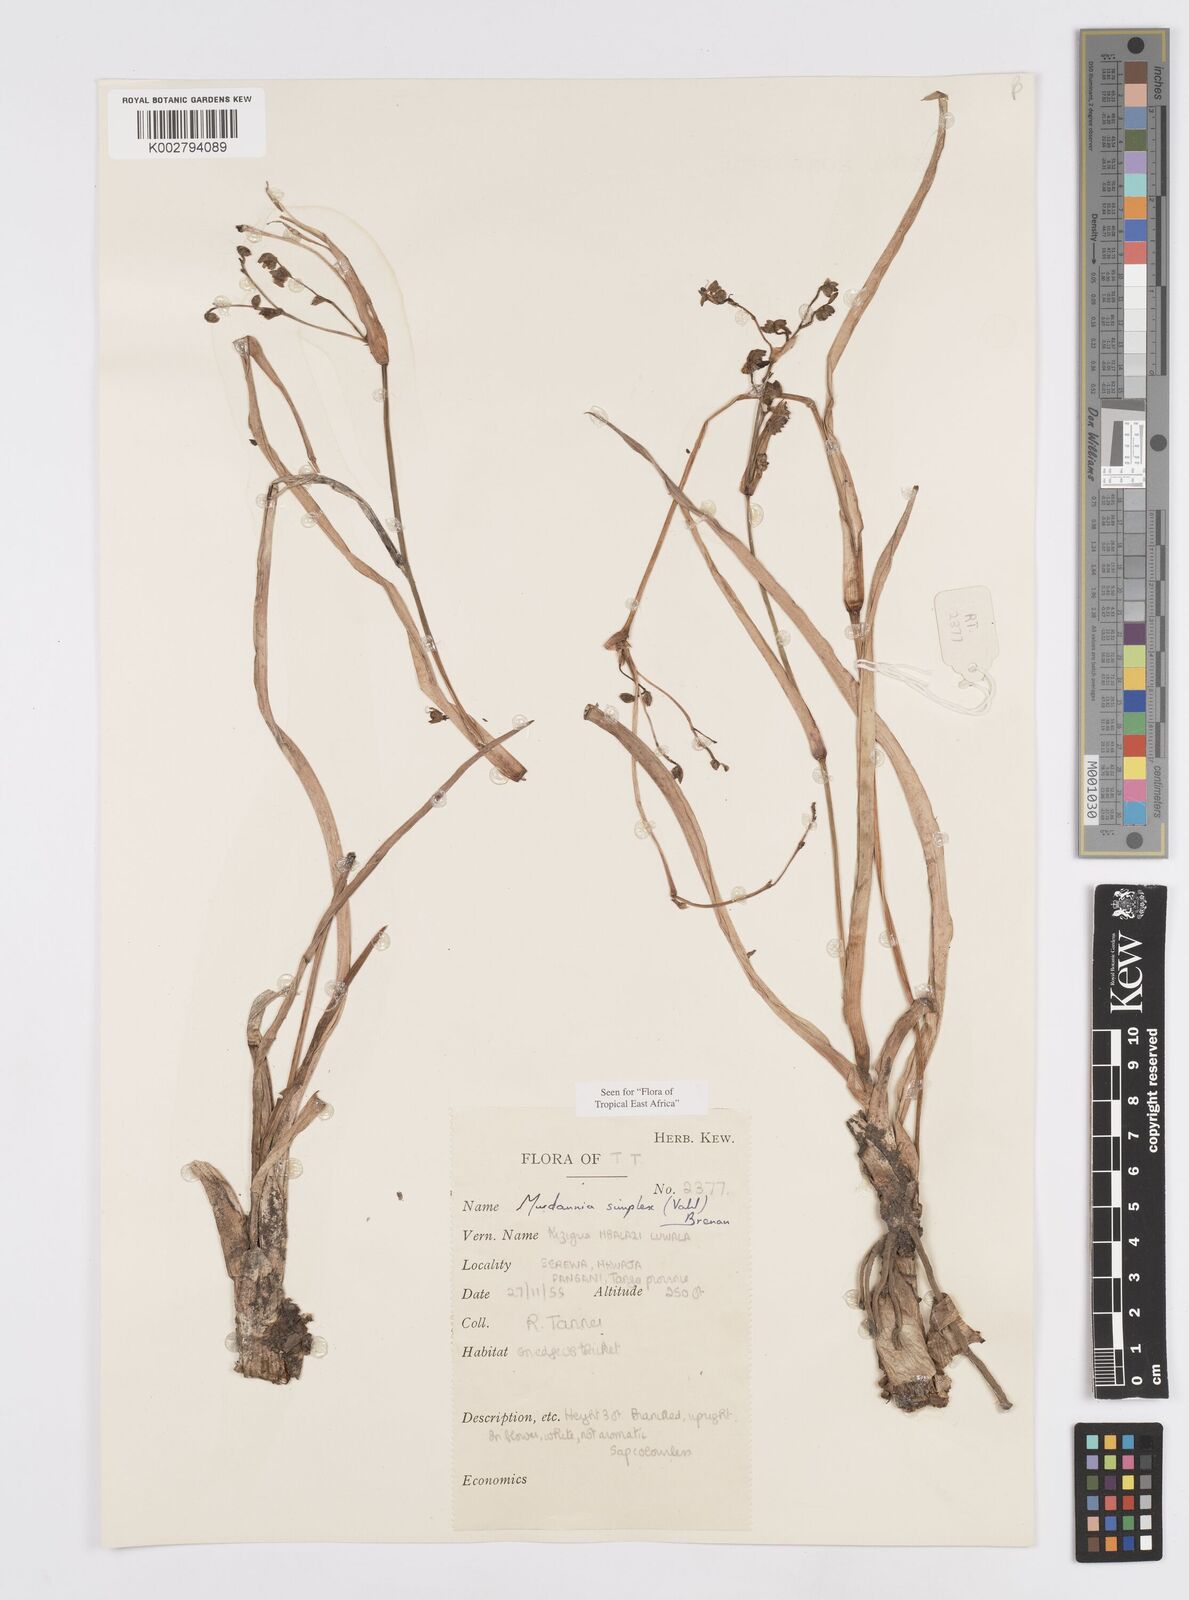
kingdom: Plantae
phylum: Tracheophyta
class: Liliopsida
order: Commelinales
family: Commelinaceae
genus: Murdannia
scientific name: Murdannia simplex
